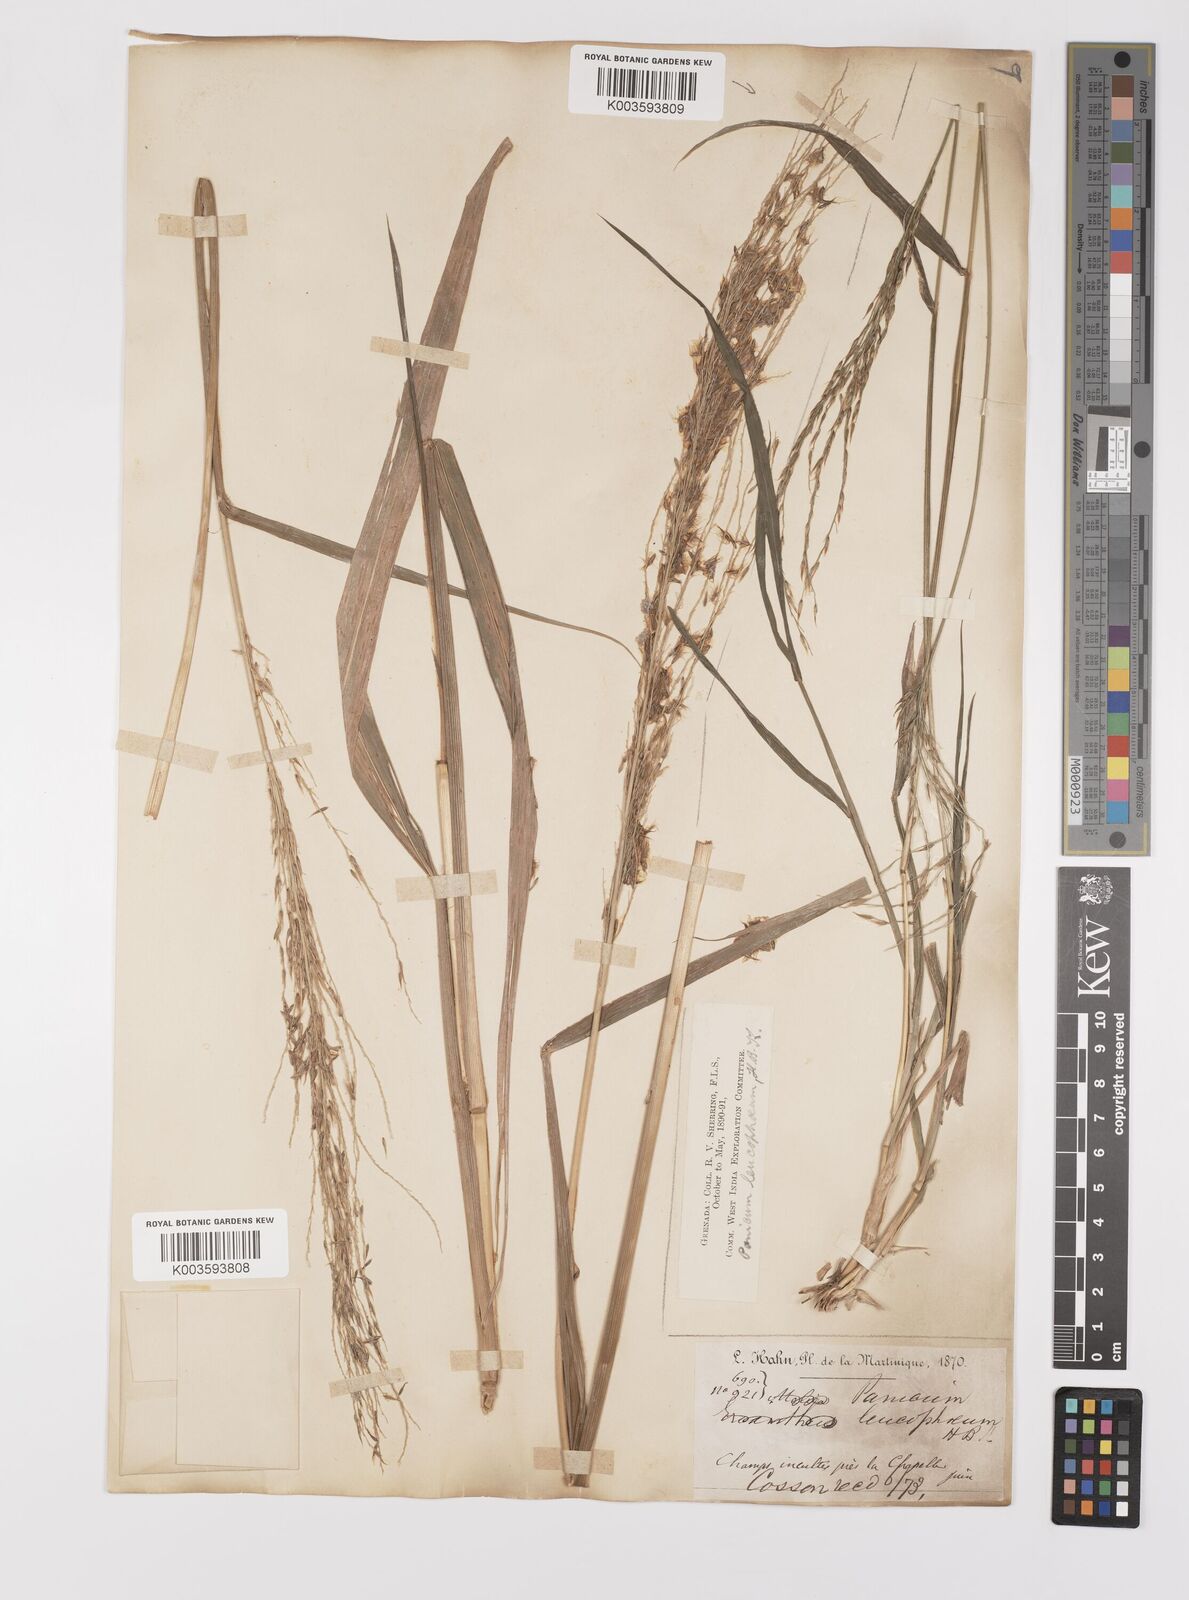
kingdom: Plantae
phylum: Tracheophyta
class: Liliopsida
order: Poales
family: Poaceae
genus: Digitaria
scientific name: Digitaria insularis
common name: Sourgrass
